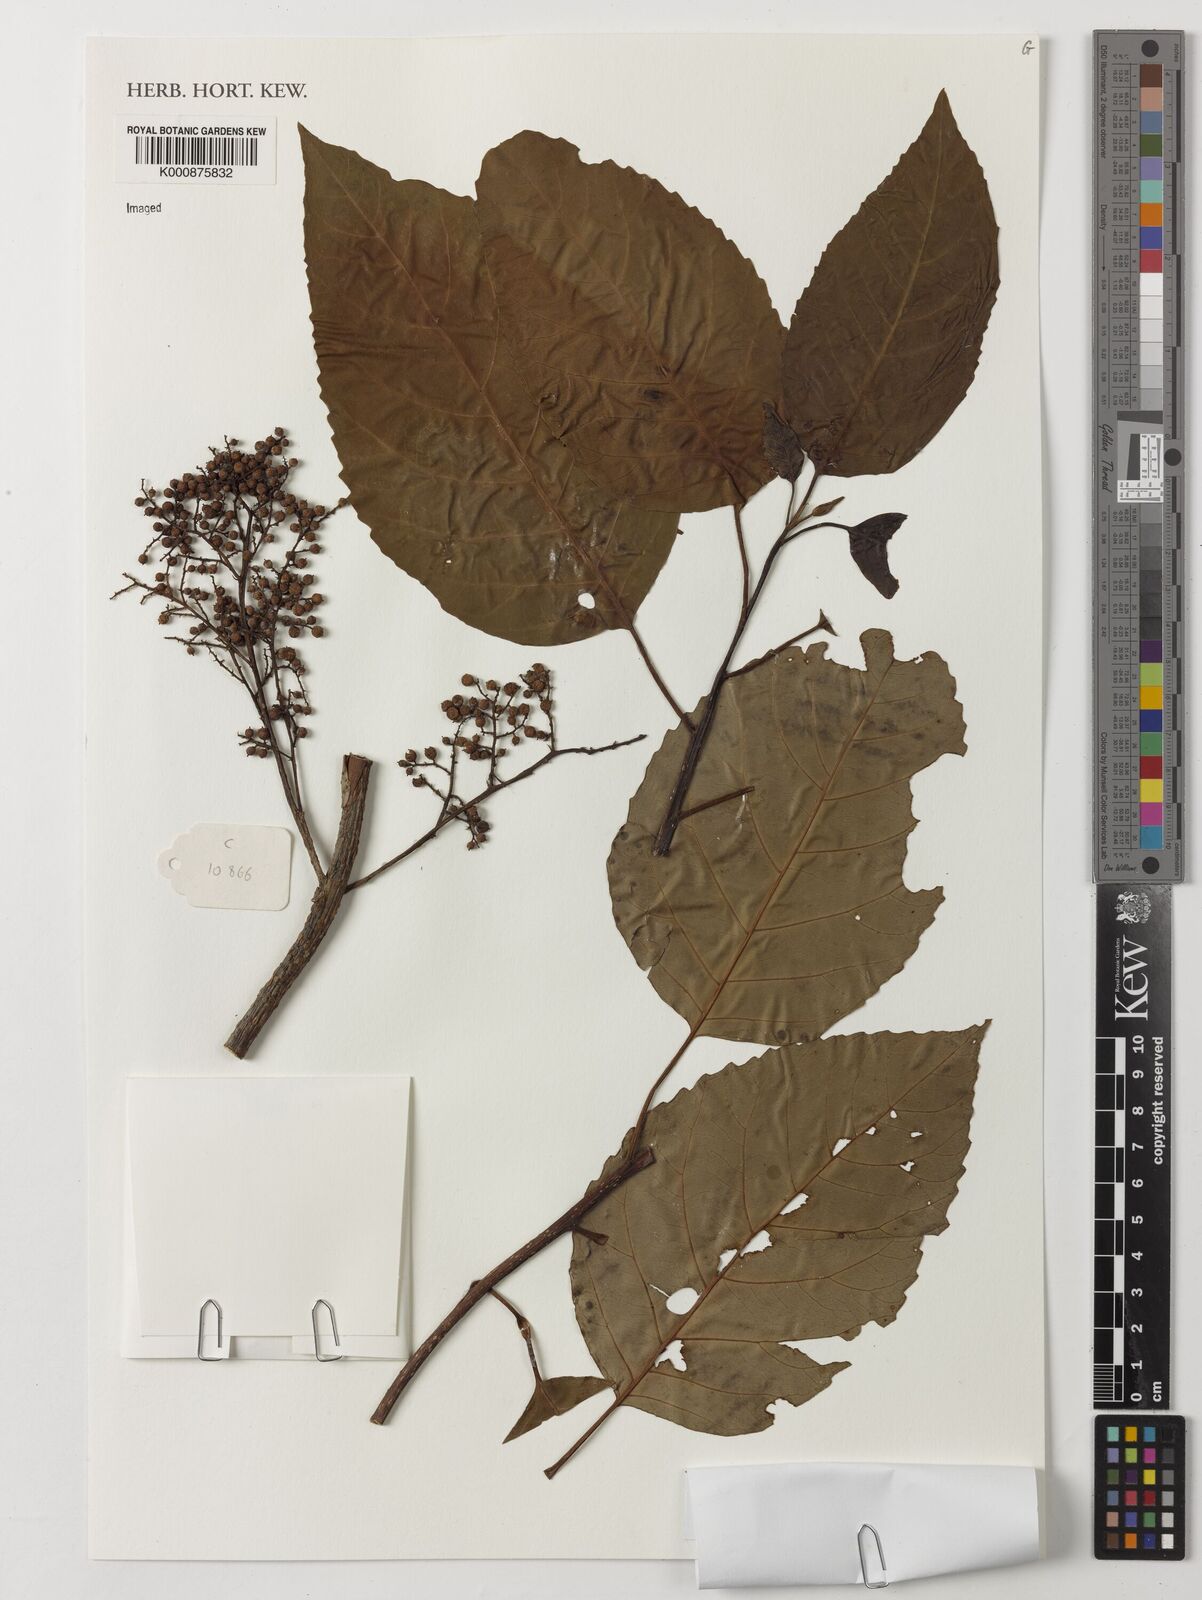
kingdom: Plantae
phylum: Tracheophyta
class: Magnoliopsida
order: Ericales
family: Primulaceae
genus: Maesa
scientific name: Maesa lanceolata
